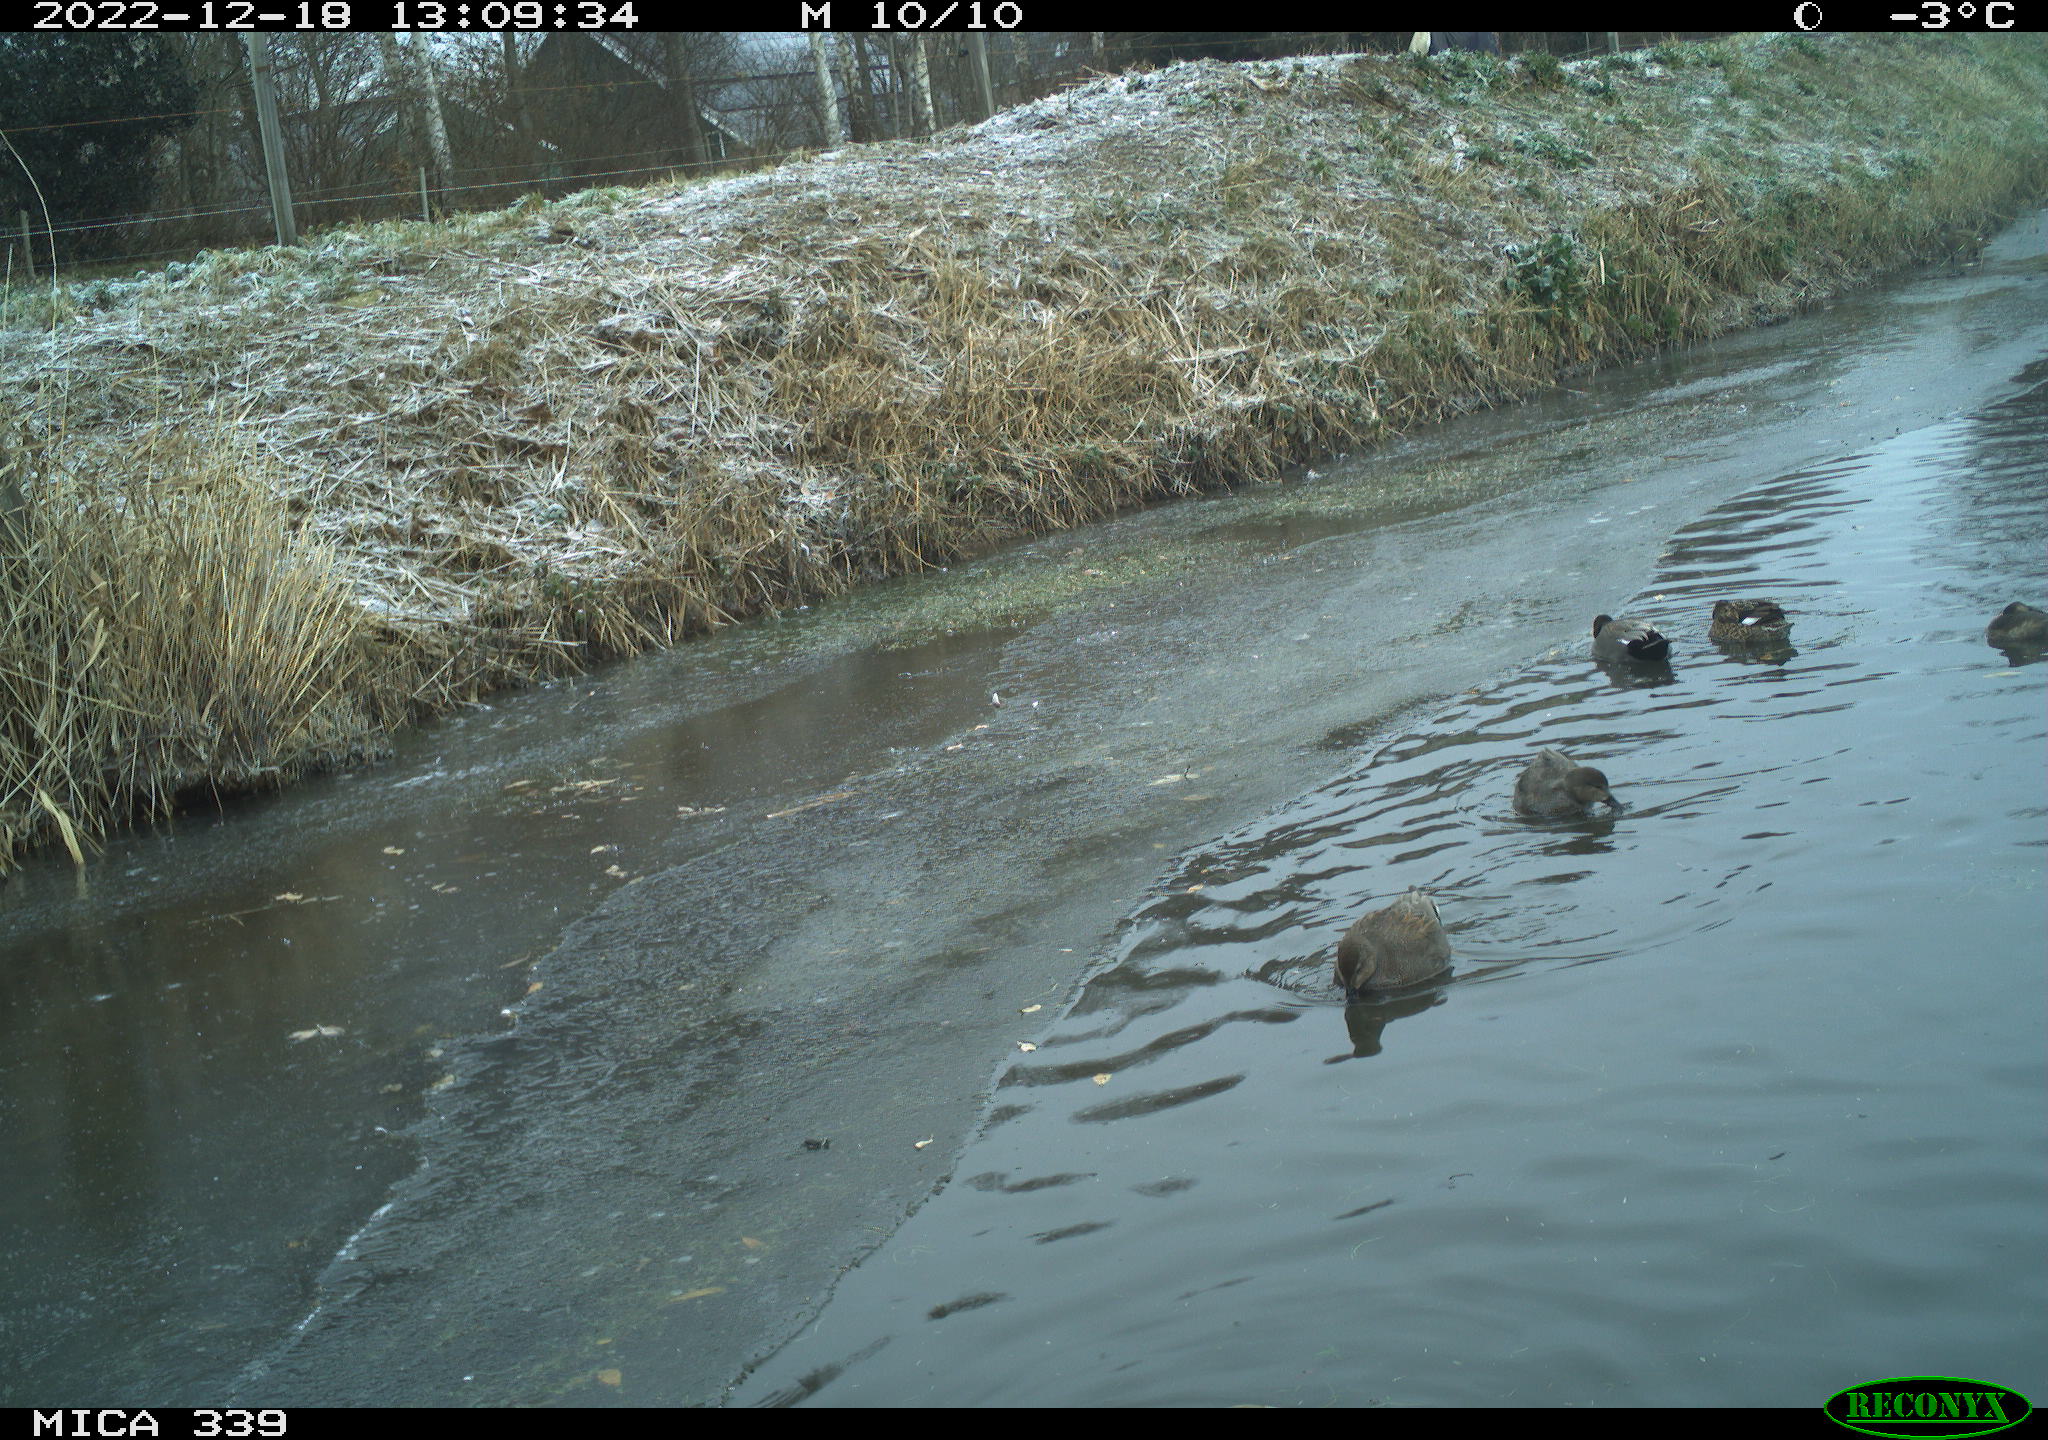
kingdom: Animalia
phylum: Chordata
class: Aves
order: Anseriformes
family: Anatidae
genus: Anas
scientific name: Anas
